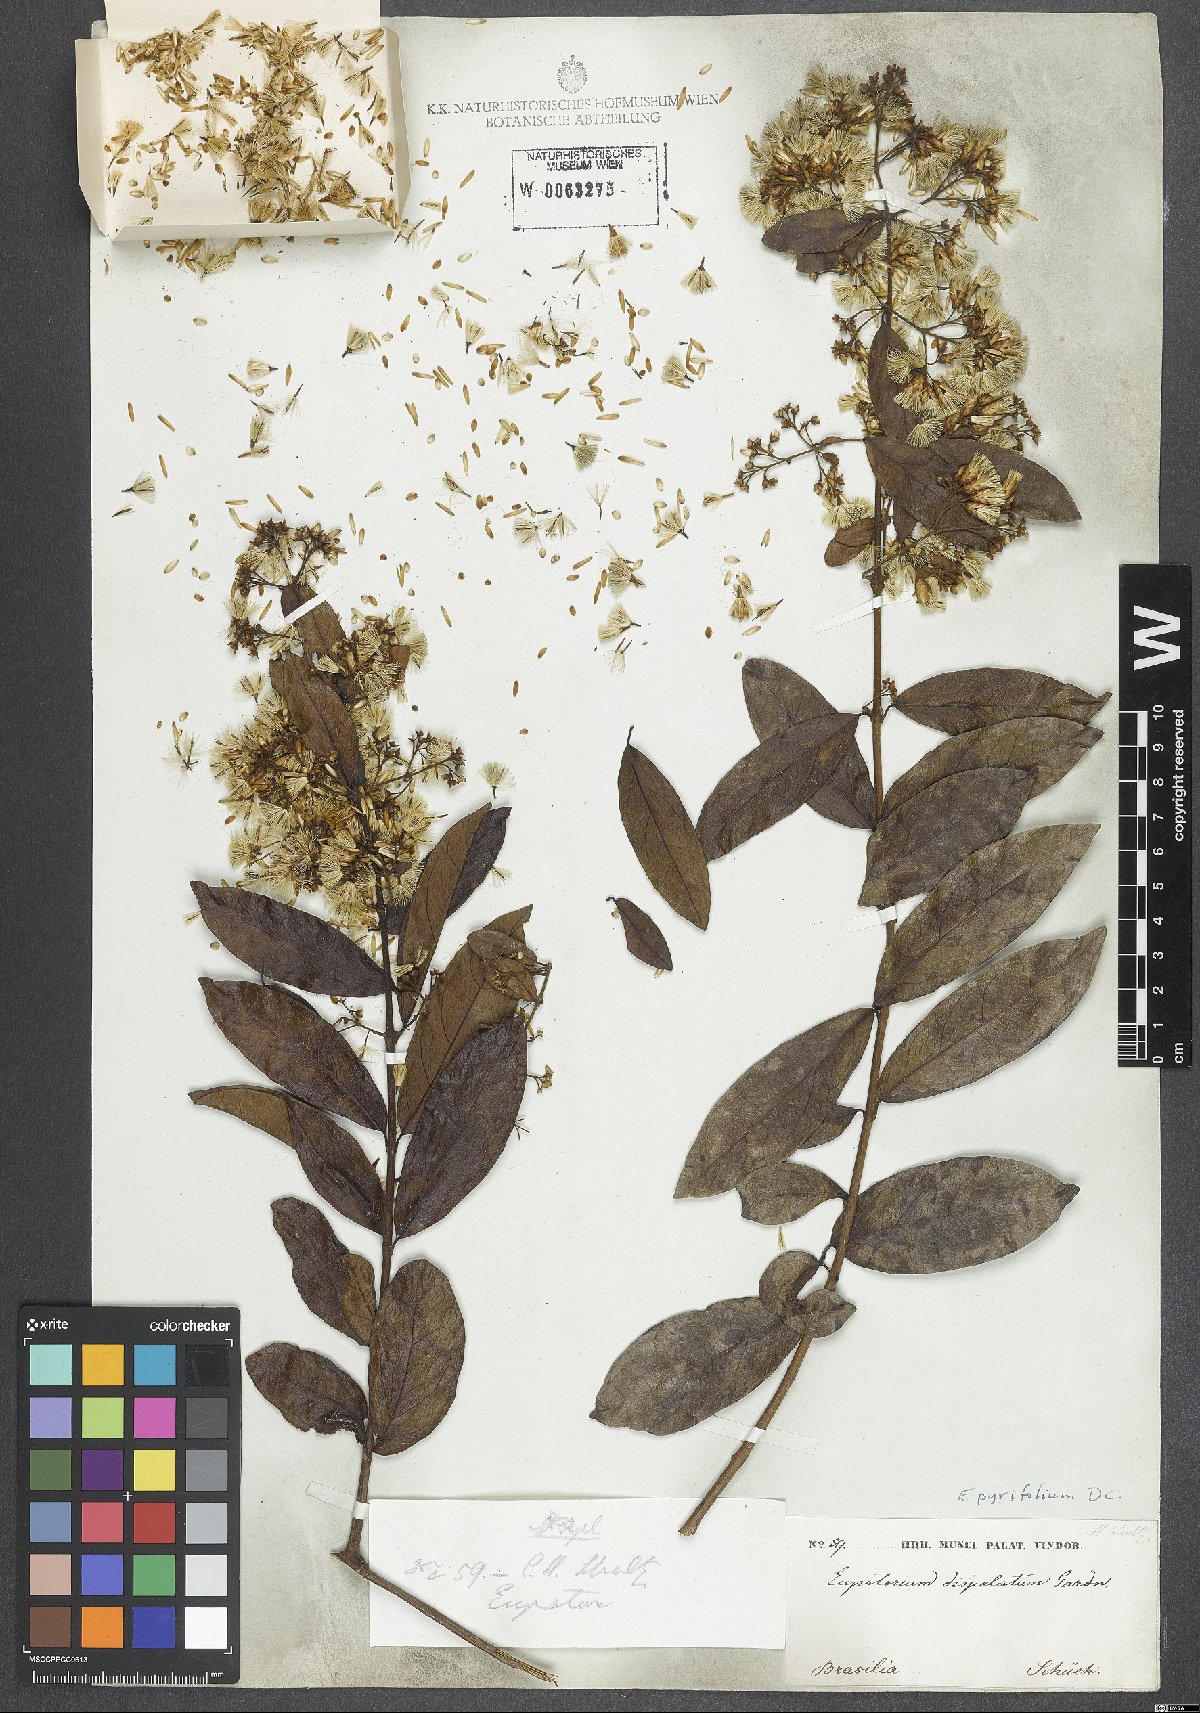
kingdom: Plantae
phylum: Tracheophyta
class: Magnoliopsida
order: Asterales
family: Asteraceae
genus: Steyermarkina
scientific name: Steyermarkina pyrifolia
